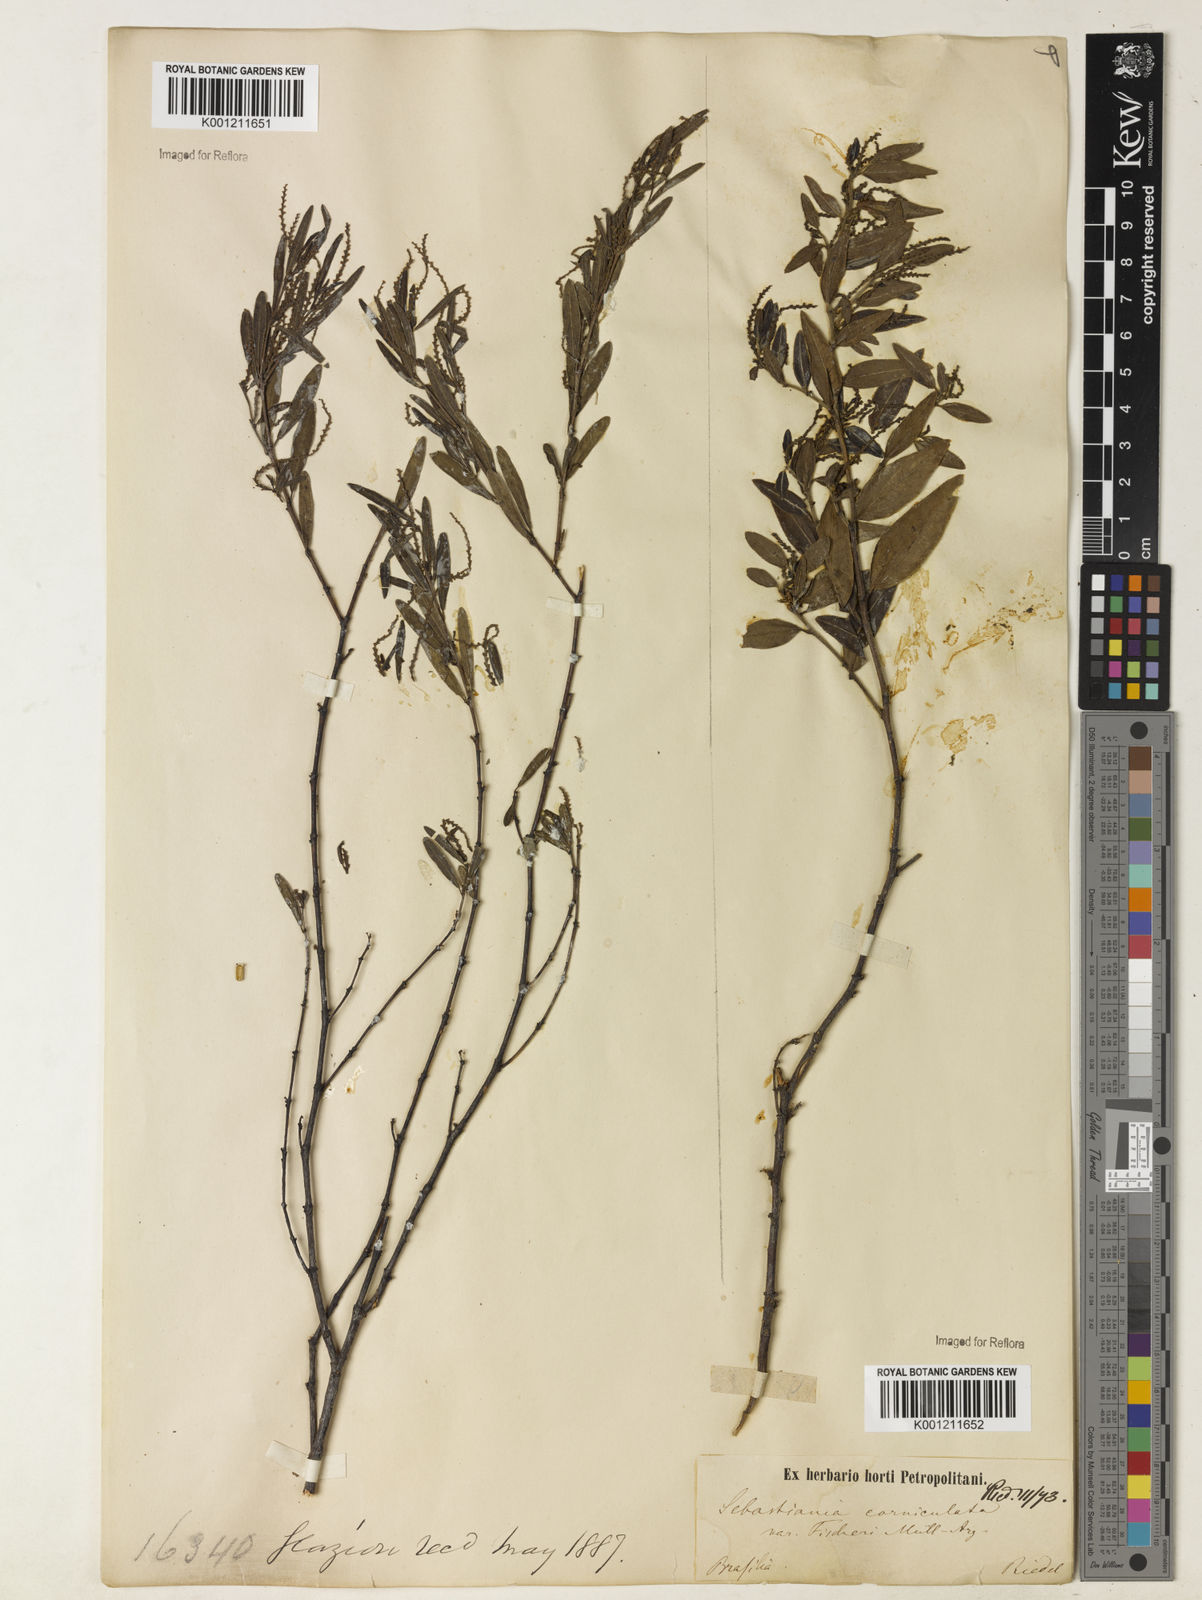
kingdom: Plantae
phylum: Tracheophyta
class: Magnoliopsida
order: Malpighiales
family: Euphorbiaceae
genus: Microstachys
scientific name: Microstachys
